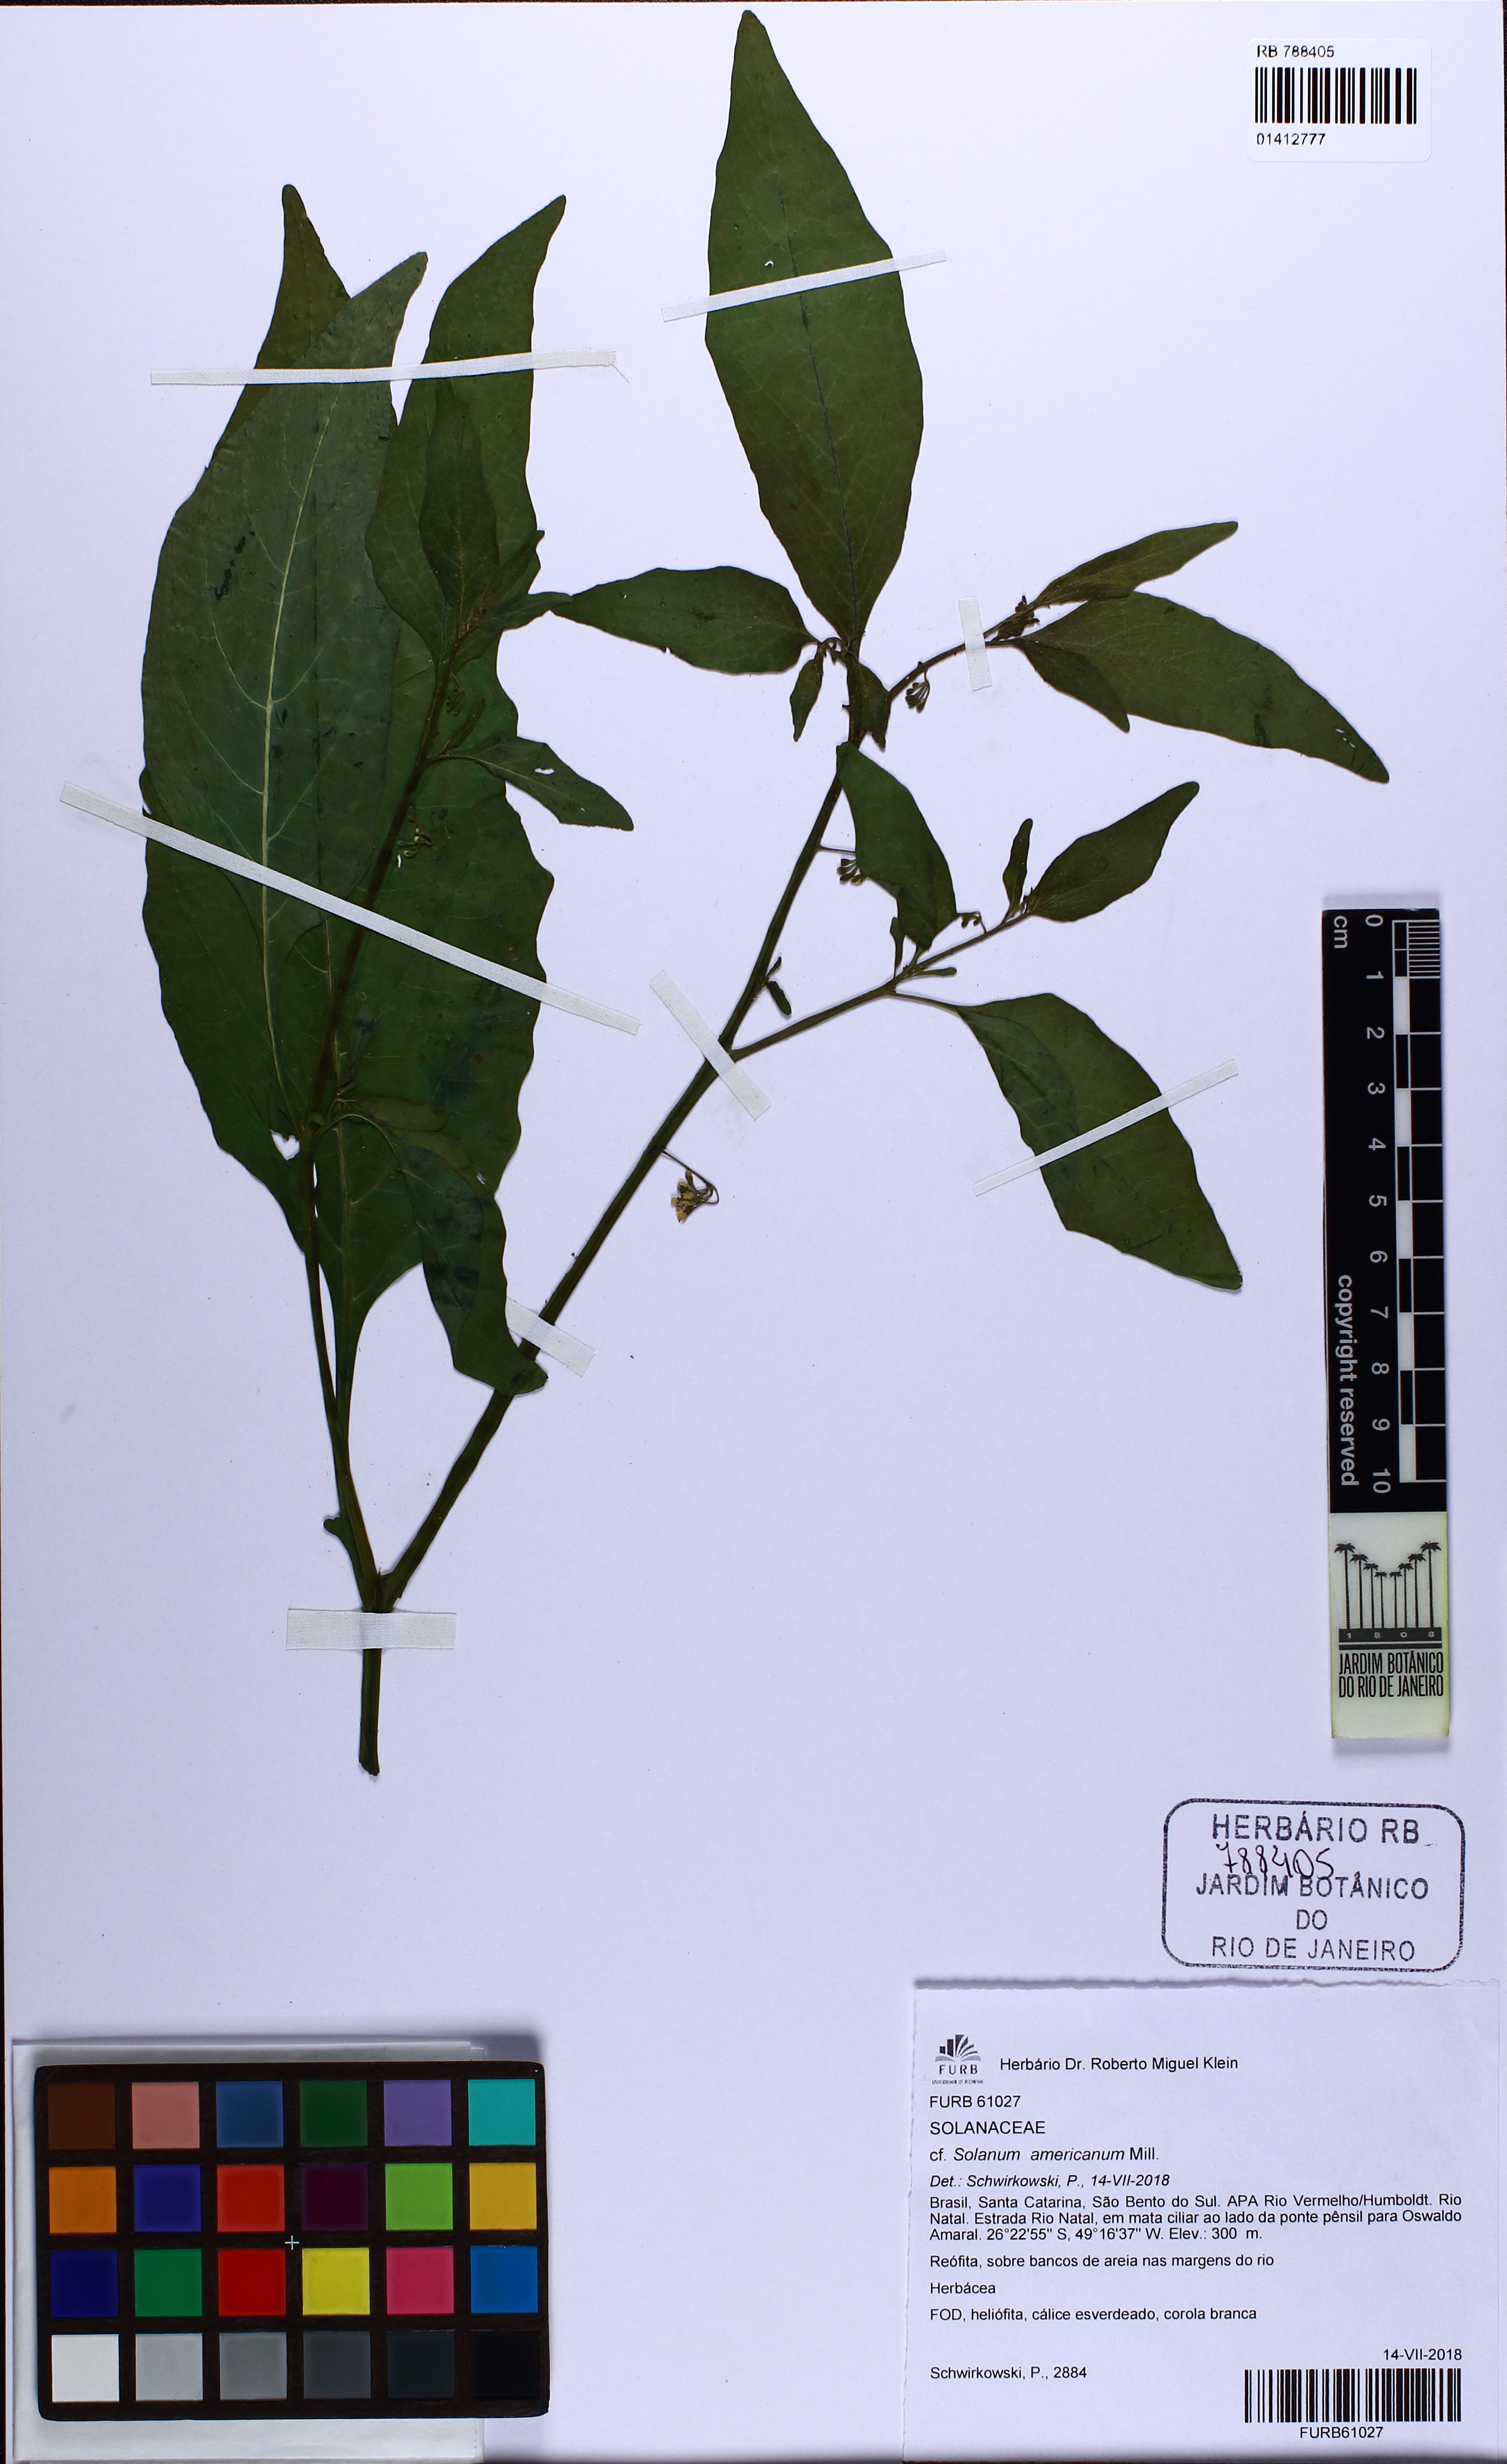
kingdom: Plantae
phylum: Tracheophyta
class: Magnoliopsida
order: Solanales
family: Solanaceae
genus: Solanum
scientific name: Solanum americanum
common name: American black nightshade
